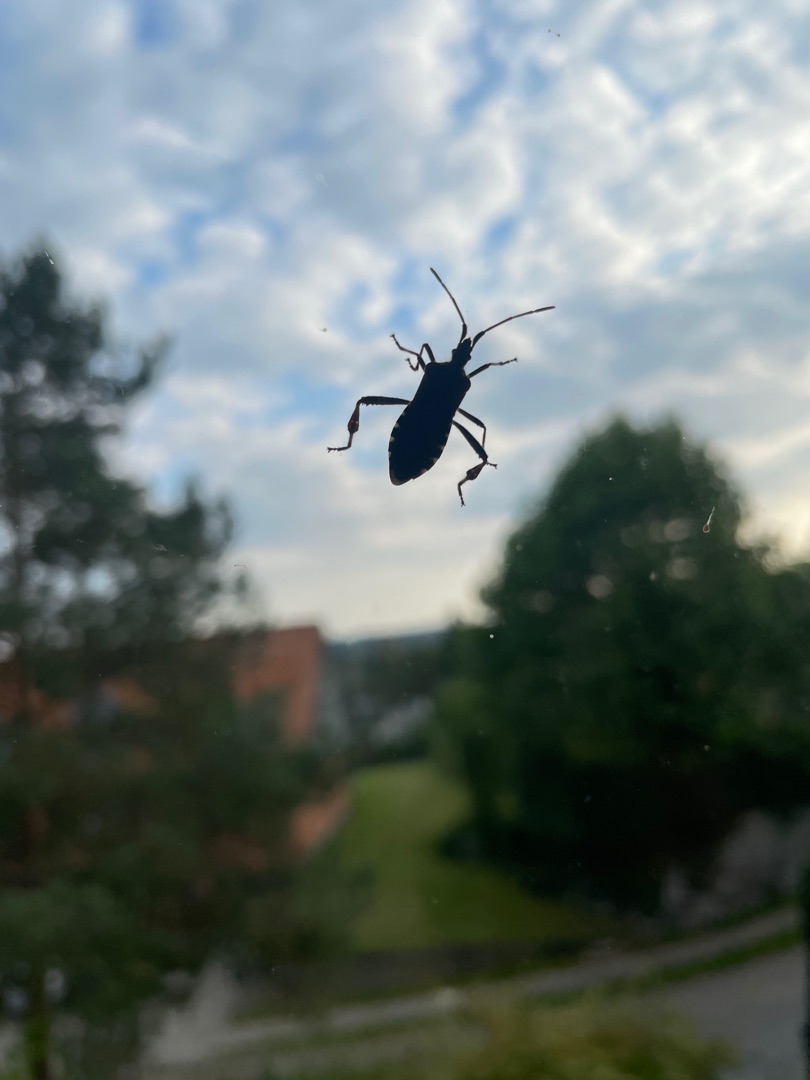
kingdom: Animalia
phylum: Arthropoda
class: Insecta
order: Hemiptera
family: Coreidae
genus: Leptoglossus
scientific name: Leptoglossus occidentalis
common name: Amerikansk fyrretæge
